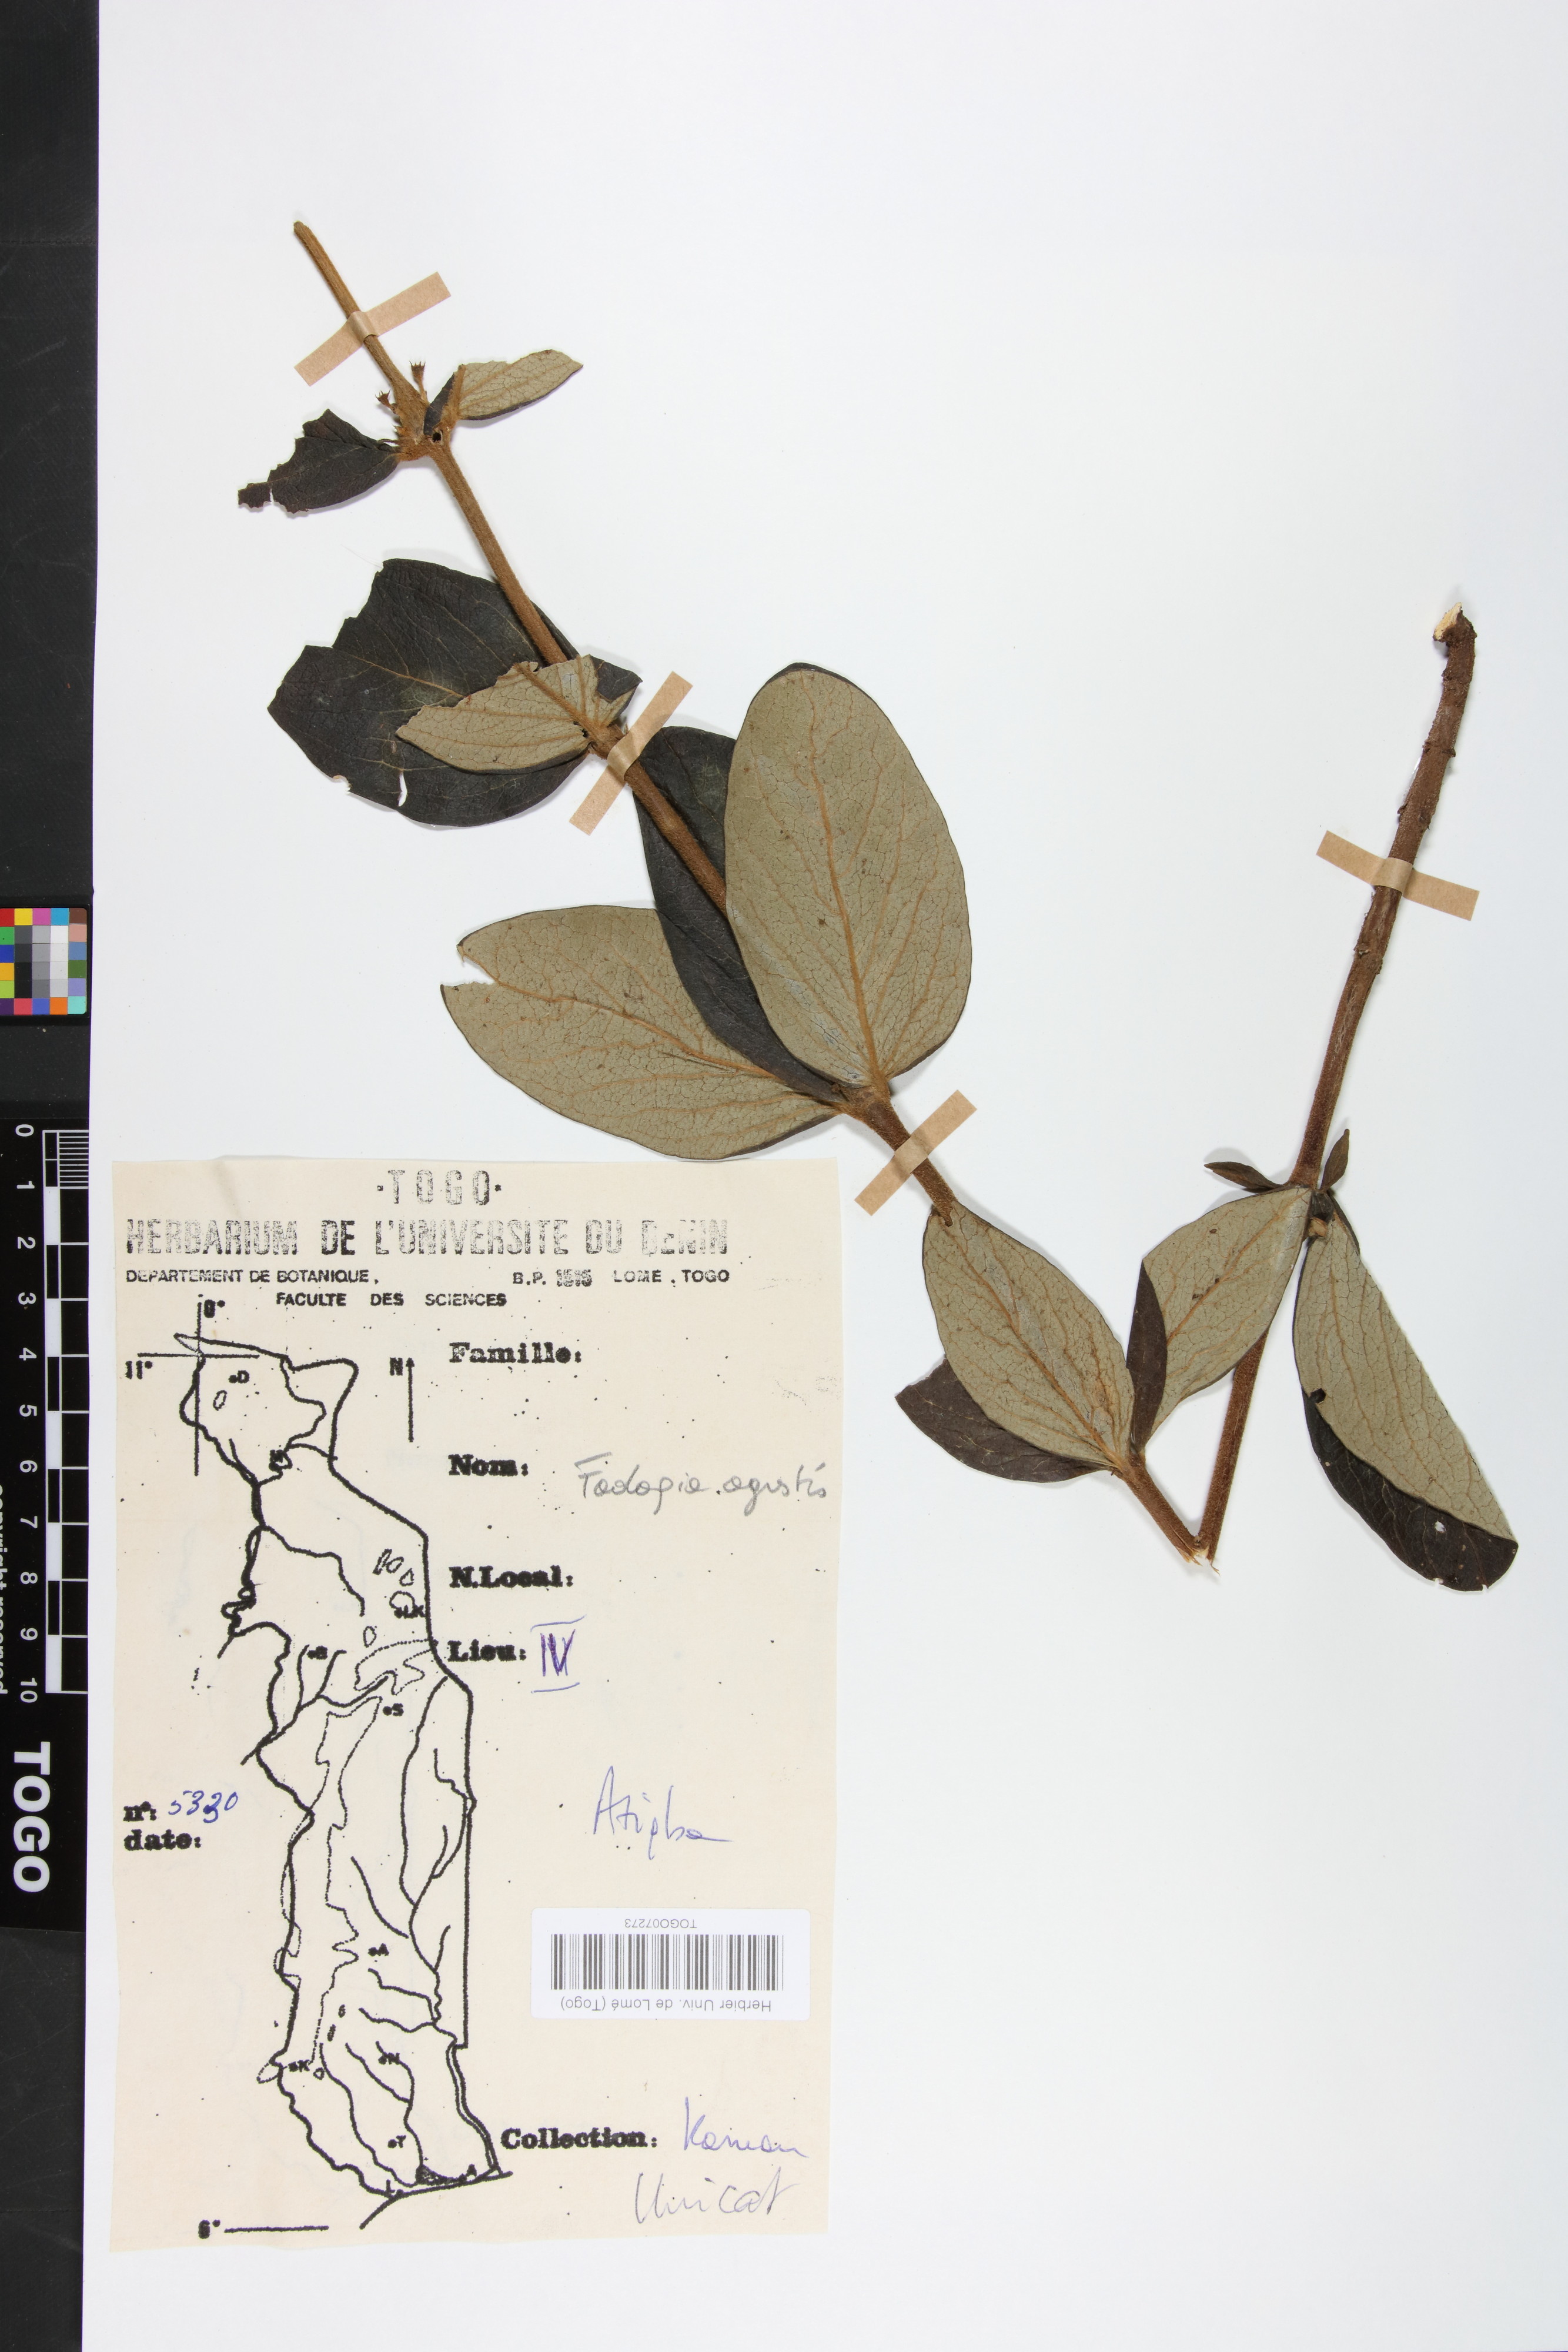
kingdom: Plantae
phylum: Tracheophyta
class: Magnoliopsida
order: Gentianales
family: Rubiaceae
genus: Vangueria
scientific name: Vangueria agrestis
